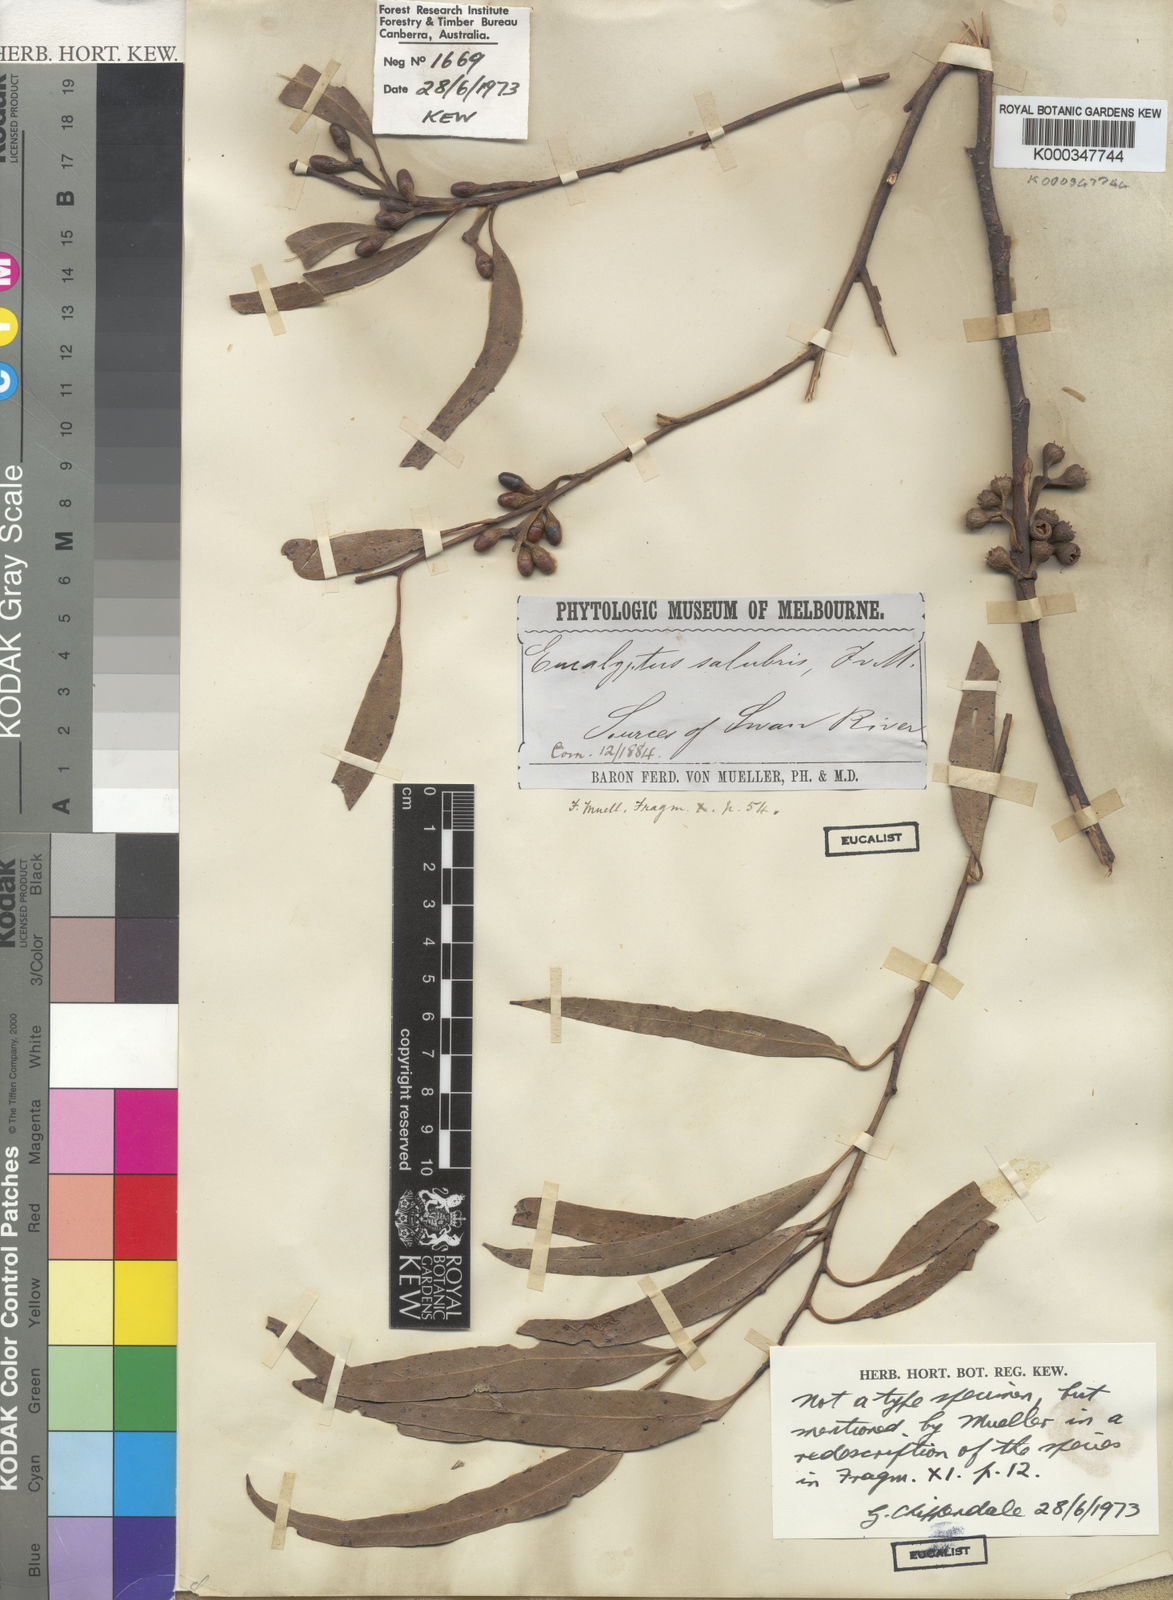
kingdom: Plantae
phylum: Tracheophyta
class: Magnoliopsida
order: Myrtales
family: Myrtaceae
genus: Eucalyptus
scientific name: Eucalyptus salubris
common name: Gimlet gum
